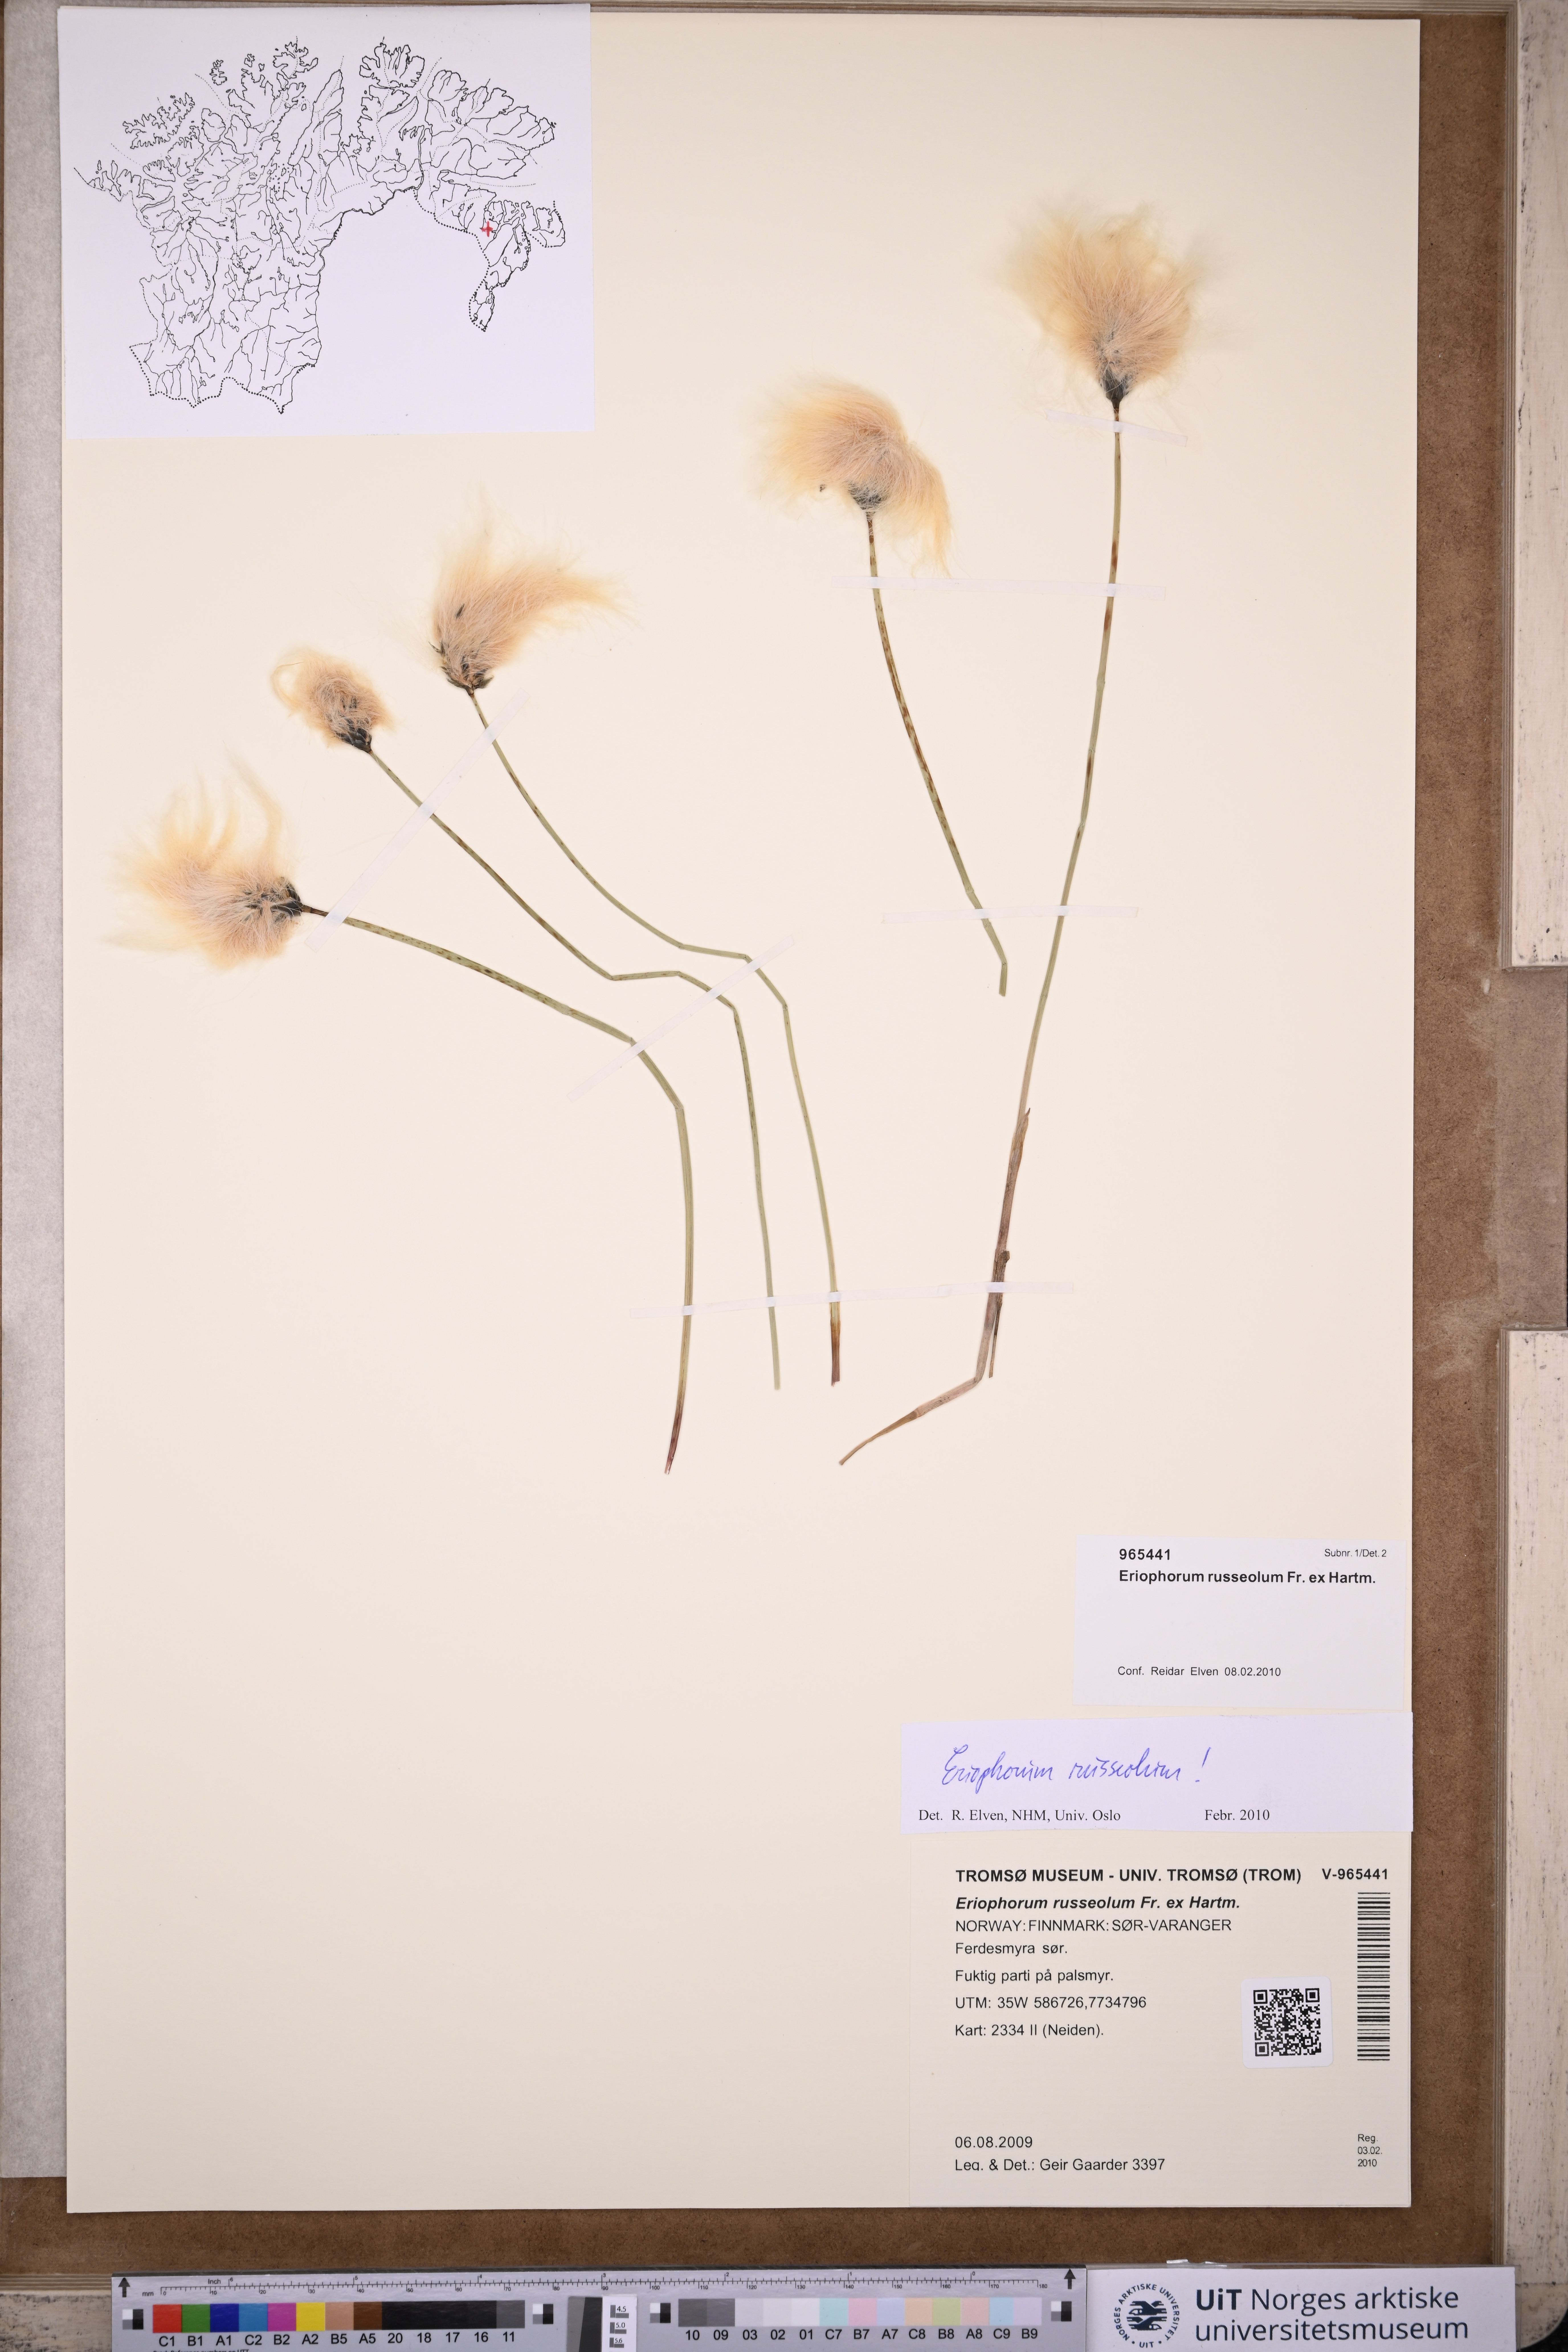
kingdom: Plantae
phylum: Tracheophyta
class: Liliopsida
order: Poales
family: Cyperaceae
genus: Eriophorum
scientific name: Eriophorum russeolum
